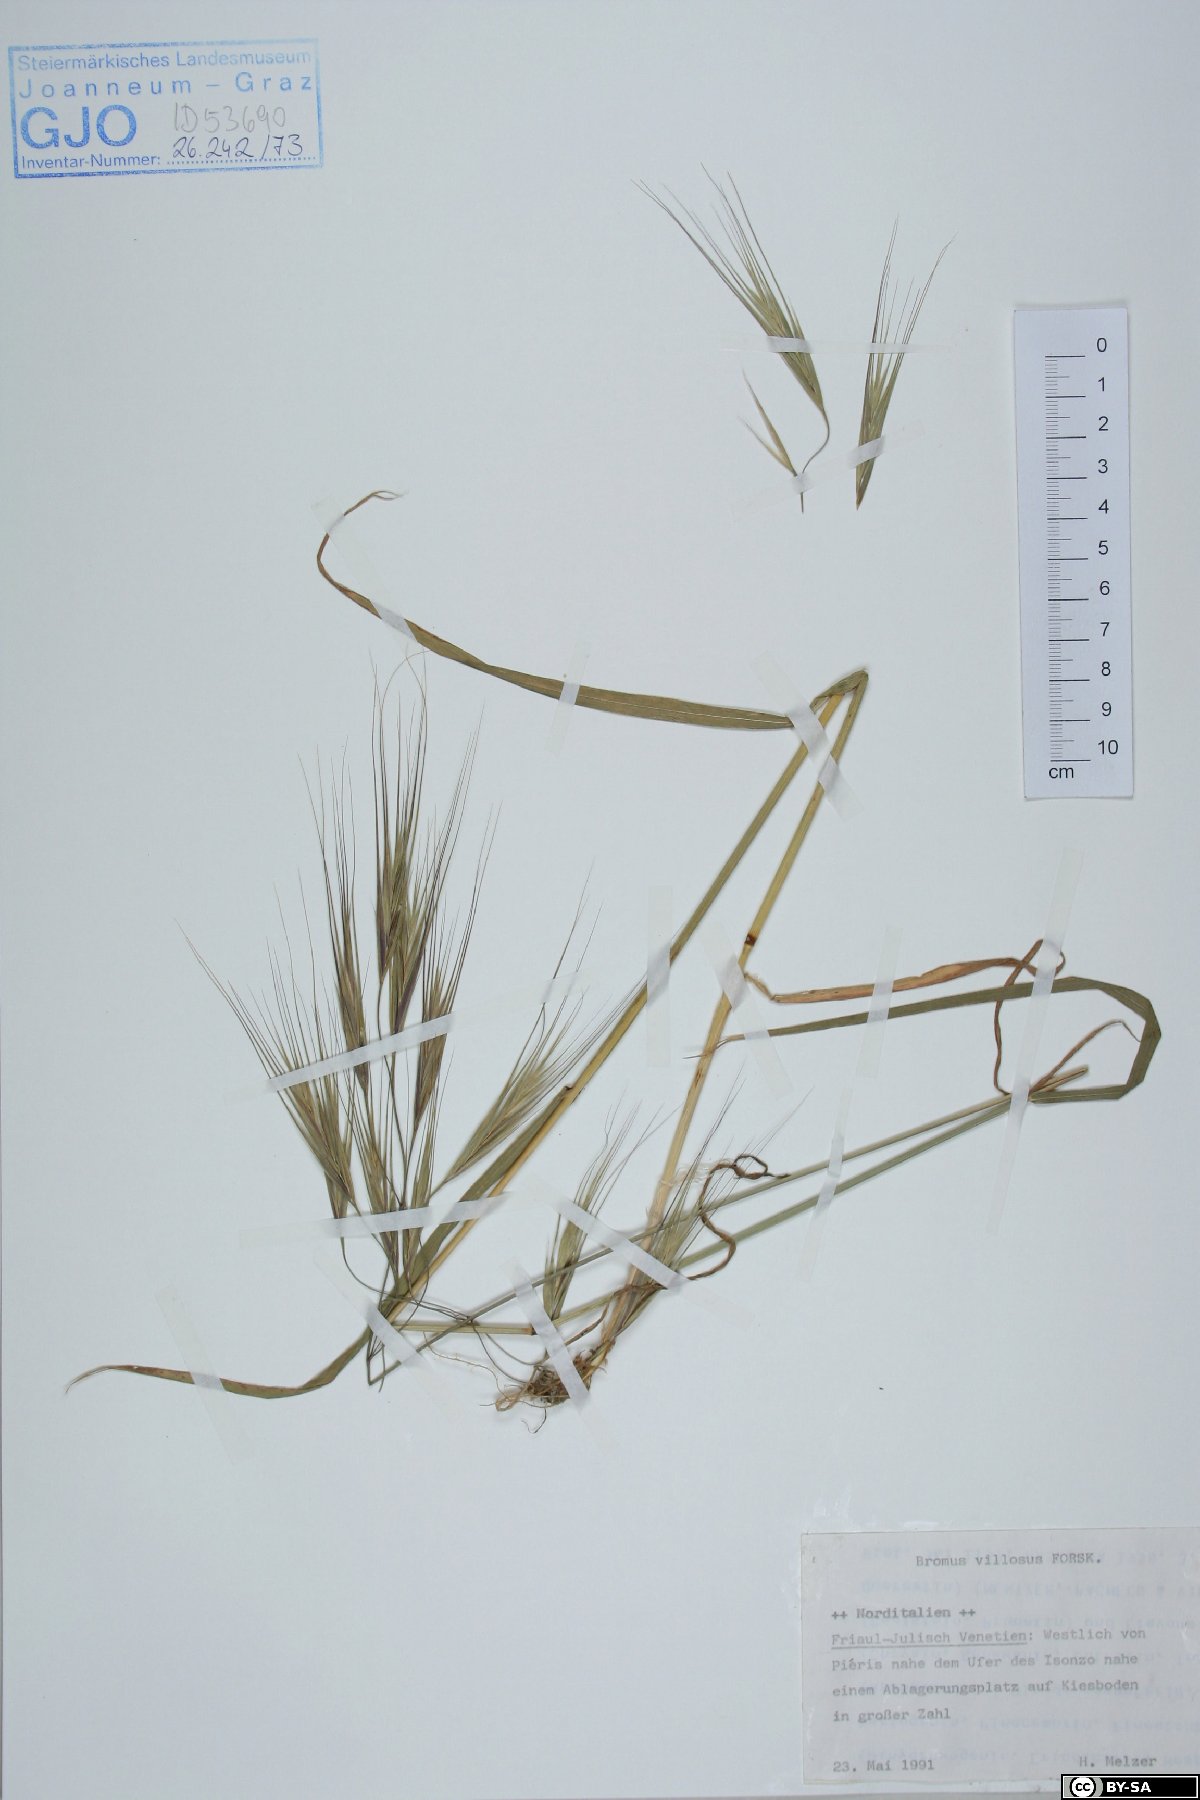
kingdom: Plantae
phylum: Tracheophyta
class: Liliopsida
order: Poales
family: Poaceae
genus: Bromus
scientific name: Bromus squarrosus
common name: Corn brome
